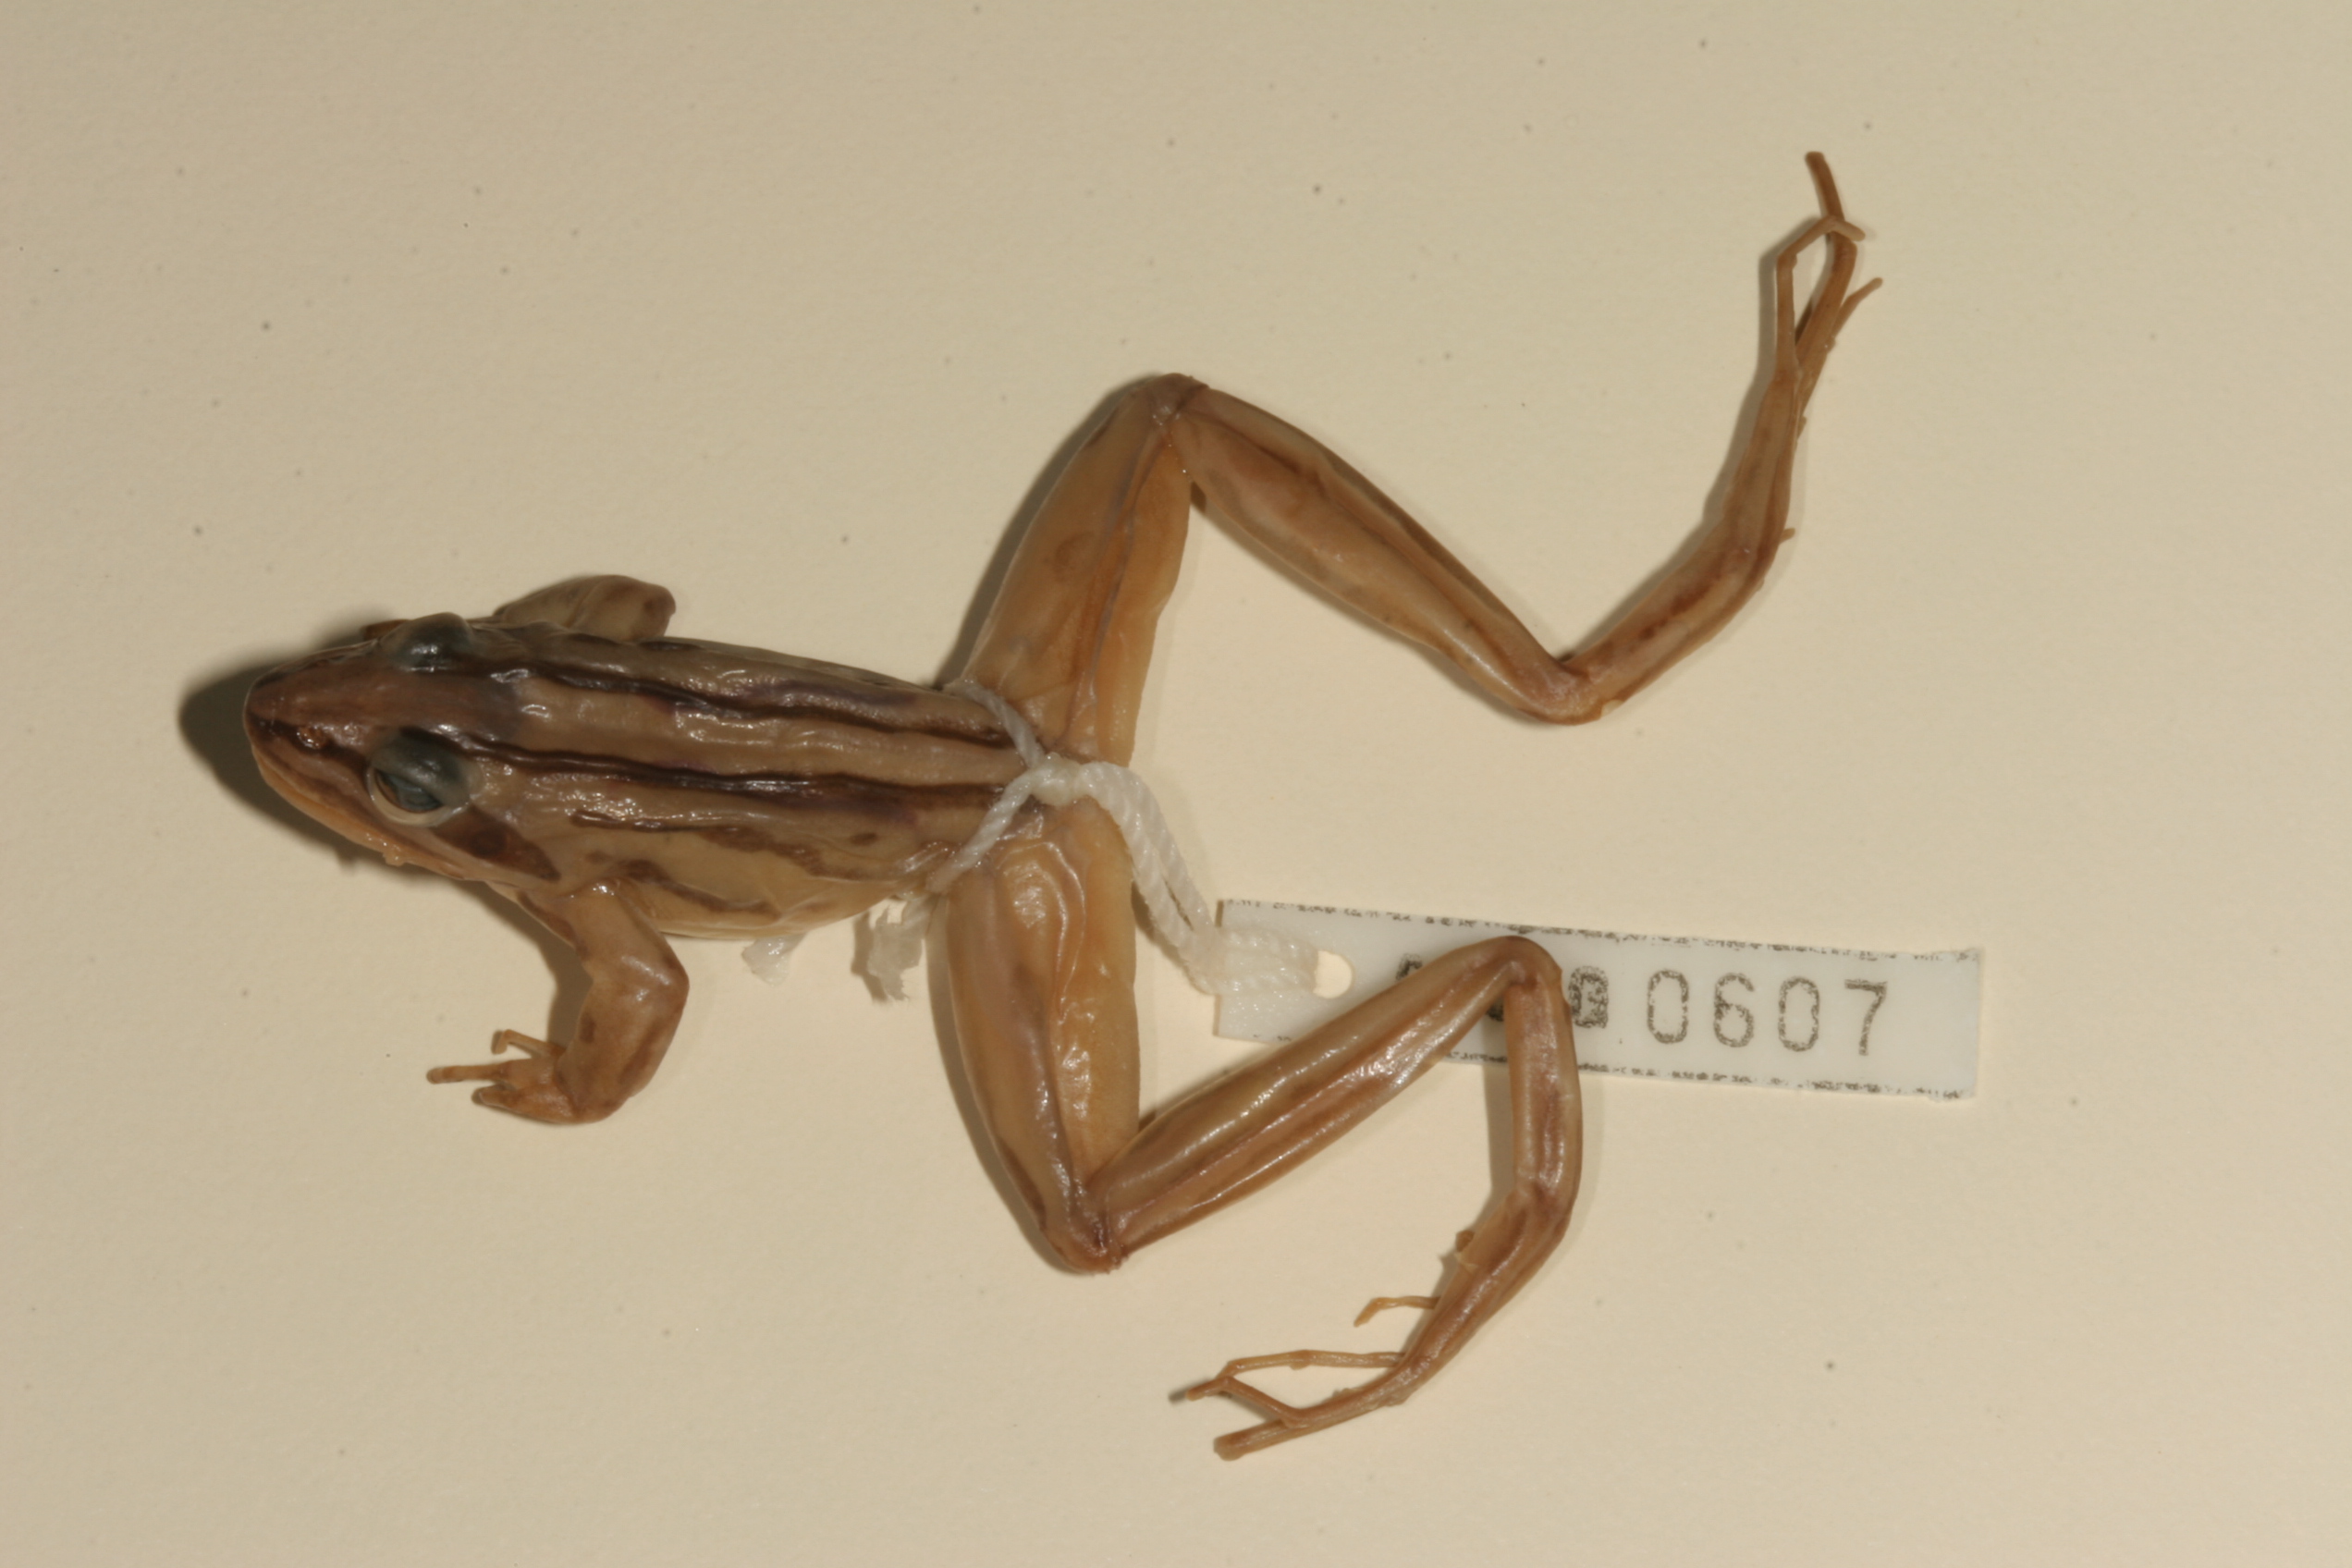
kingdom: Animalia
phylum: Chordata
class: Amphibia
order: Anura
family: Pyxicephalidae
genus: Strongylopus
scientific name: Strongylopus fasciatus
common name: Striped stream frog
